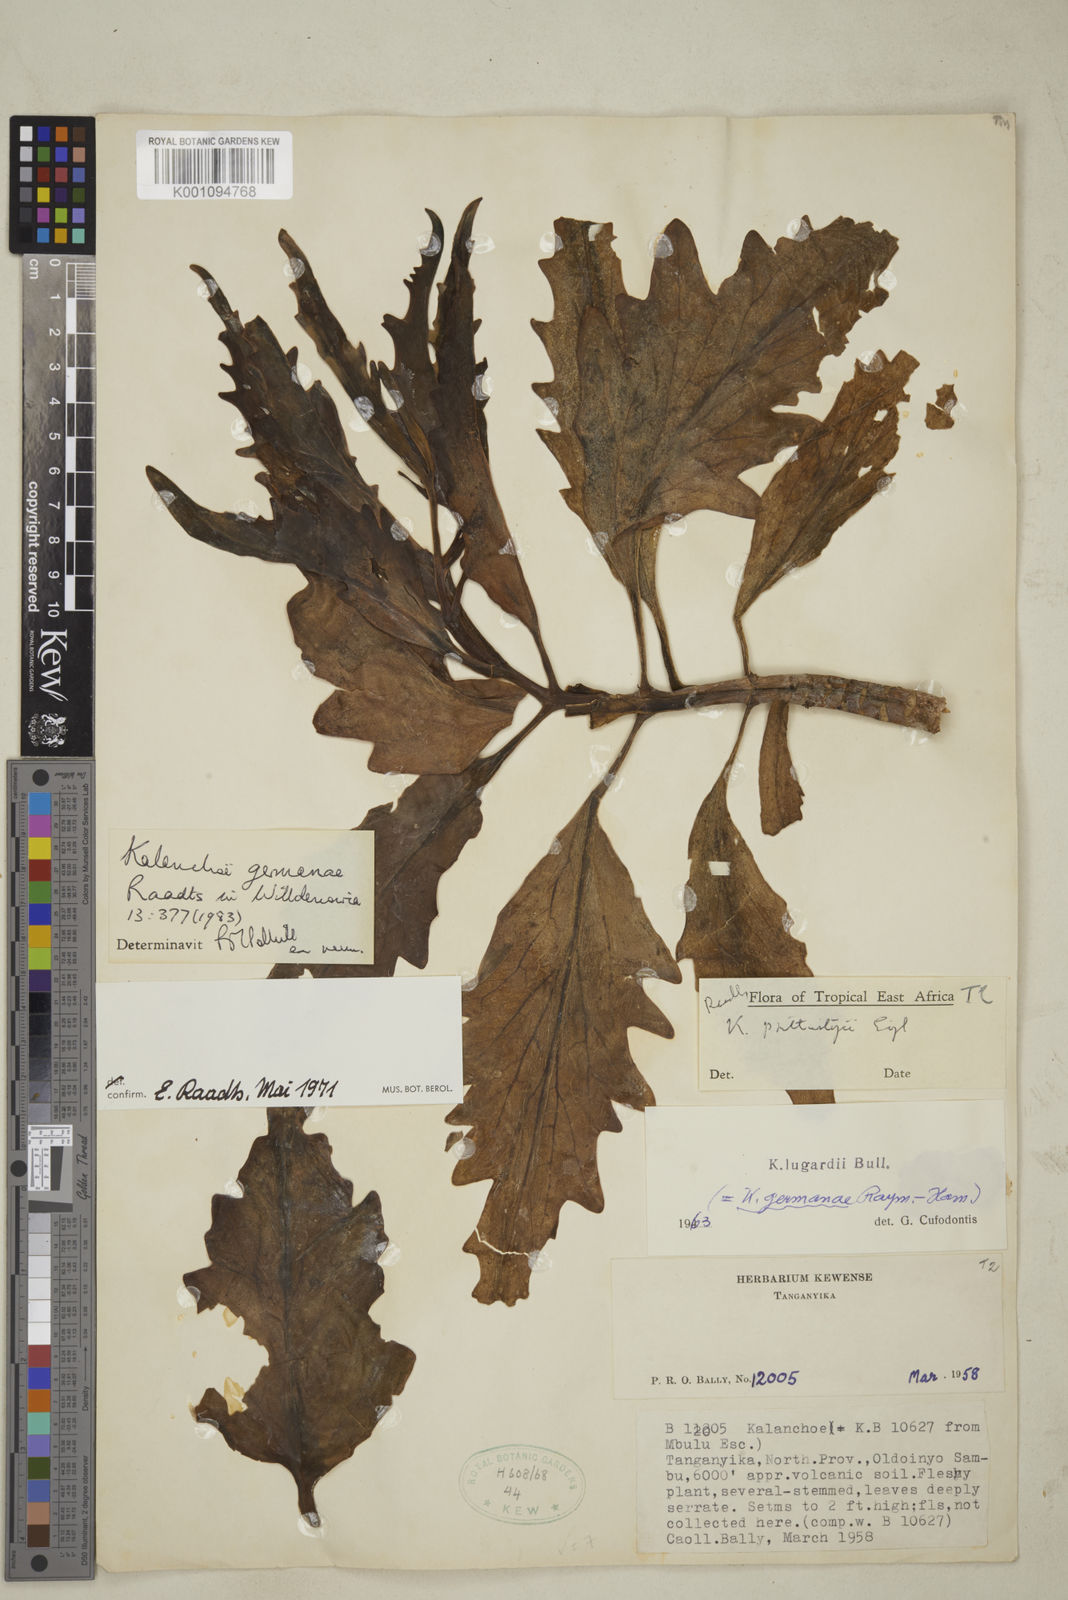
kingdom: Plantae
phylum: Tracheophyta
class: Magnoliopsida
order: Saxifragales
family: Crassulaceae
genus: Kalanchoe
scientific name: Kalanchoe germanae
